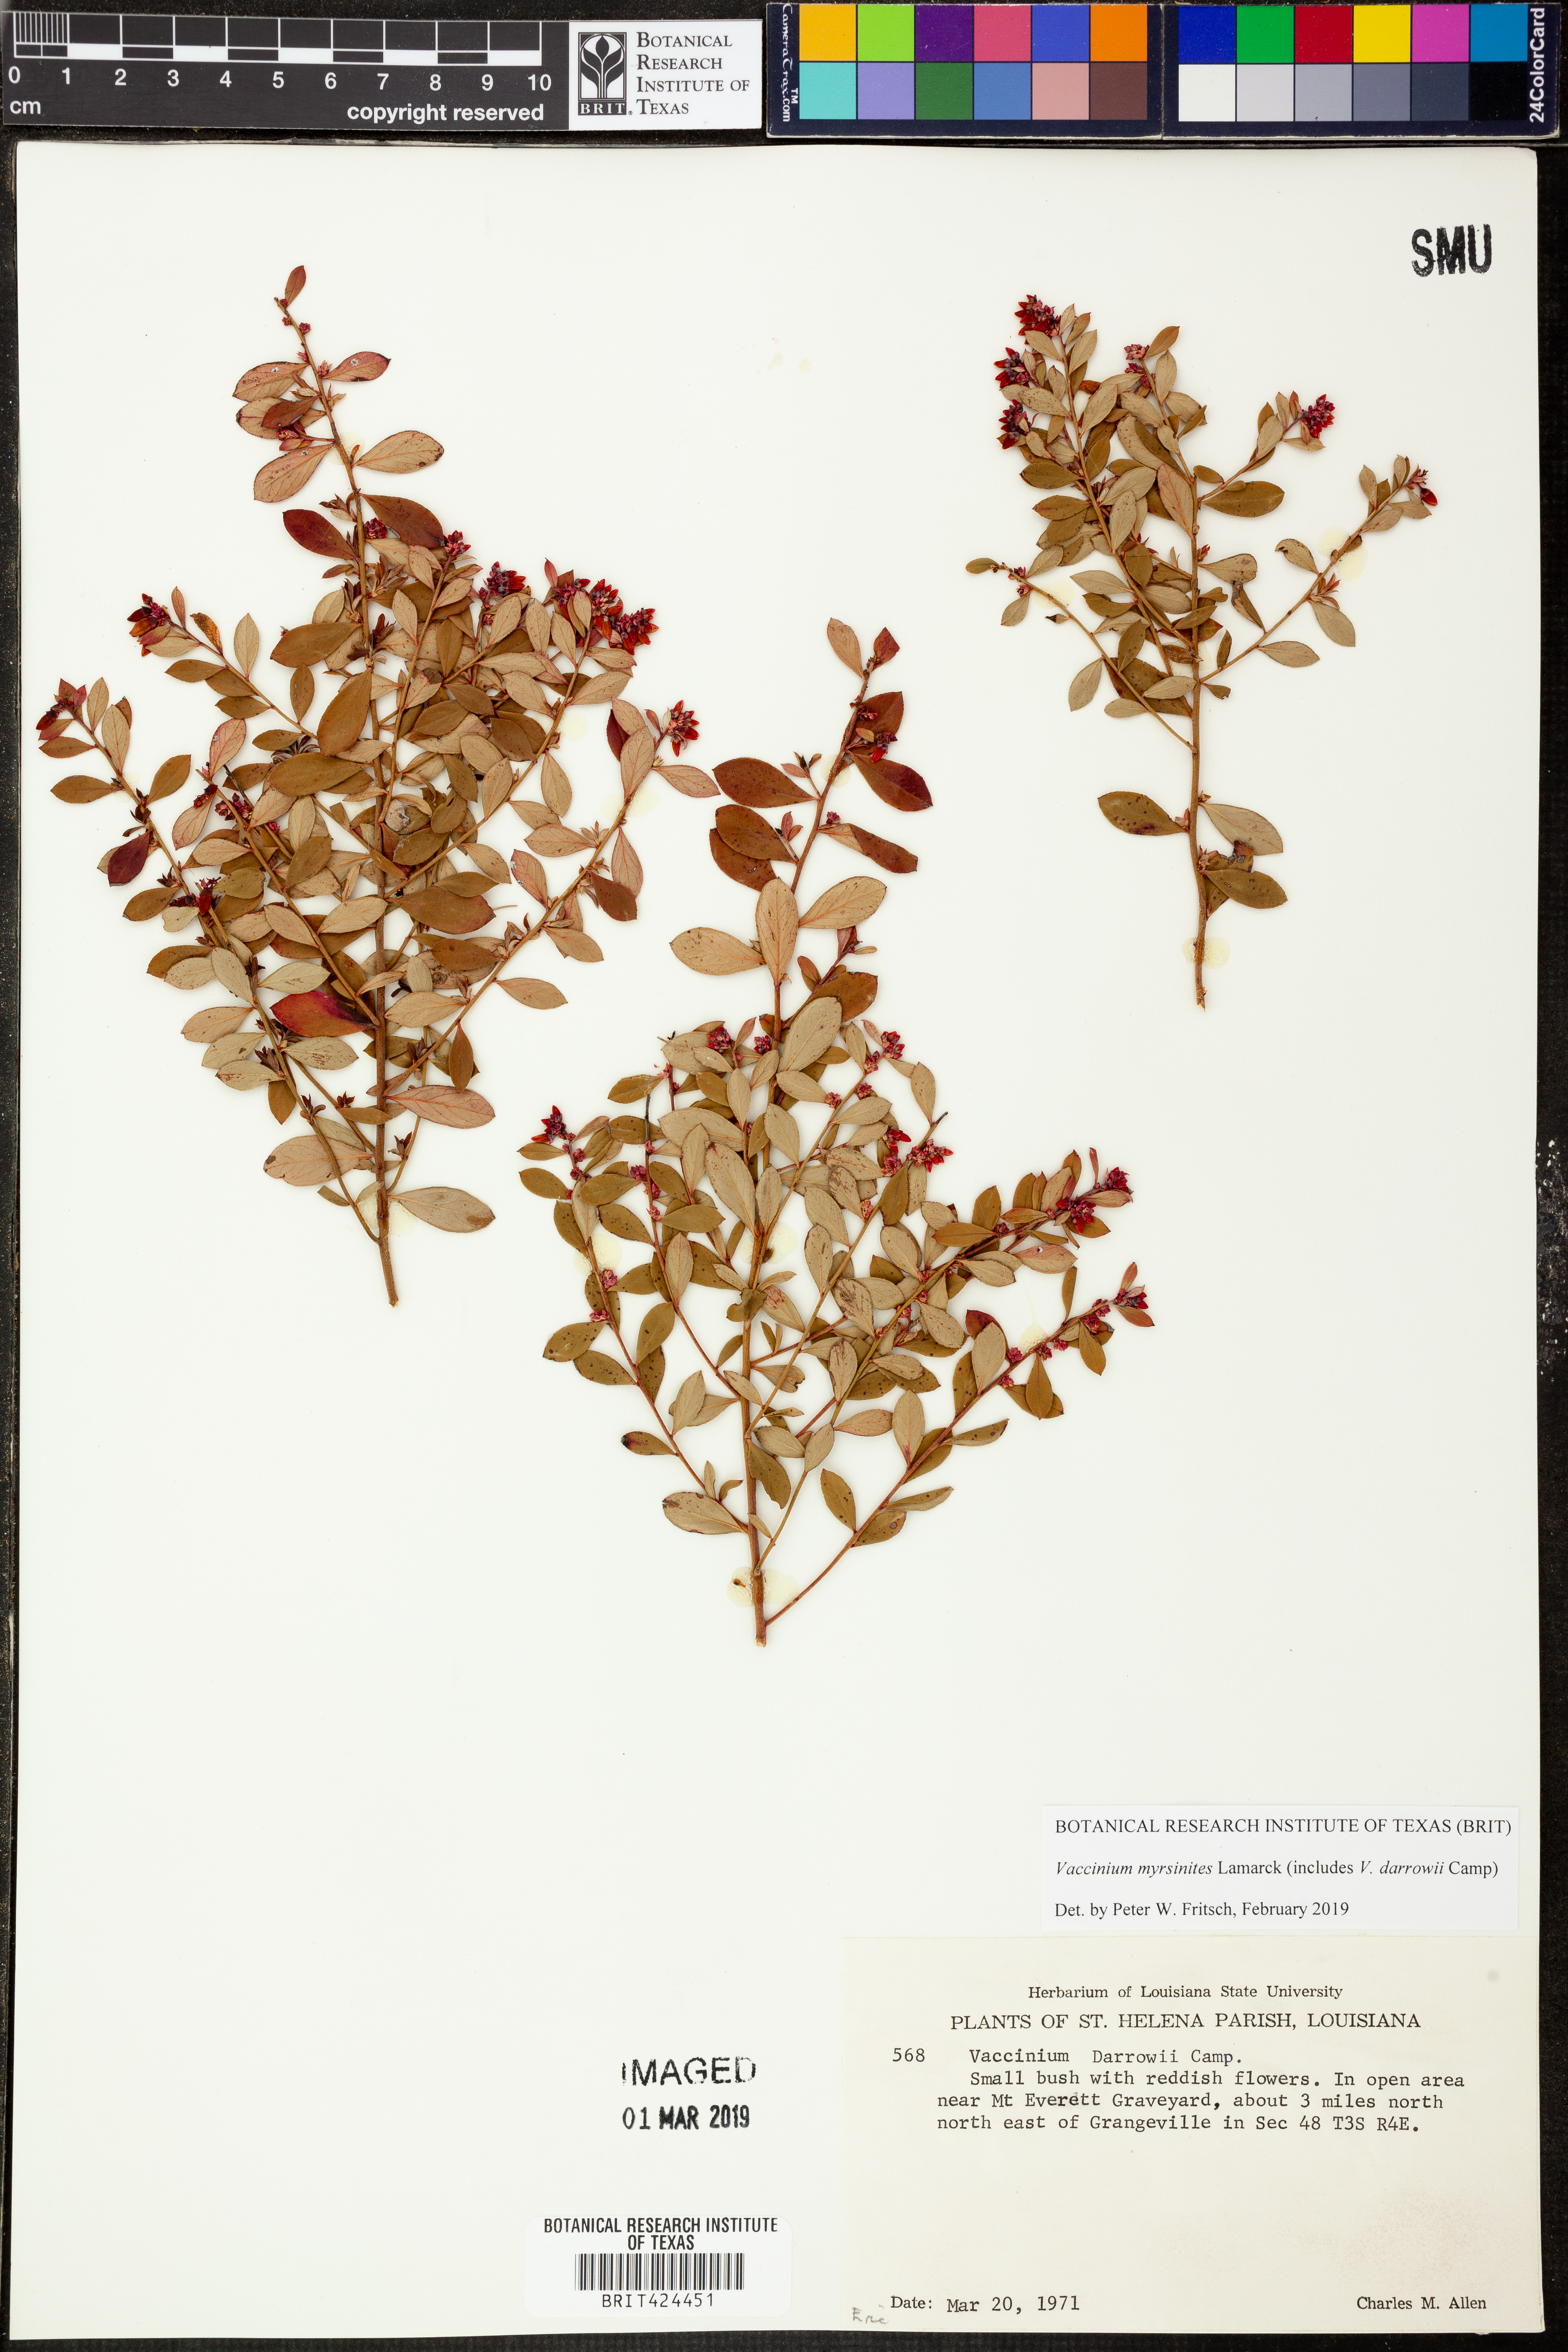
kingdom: Plantae
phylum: Tracheophyta
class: Magnoliopsida
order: Ericales
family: Ericaceae
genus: Vaccinium
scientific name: Vaccinium myrsinites
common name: Evergreen blueberry
